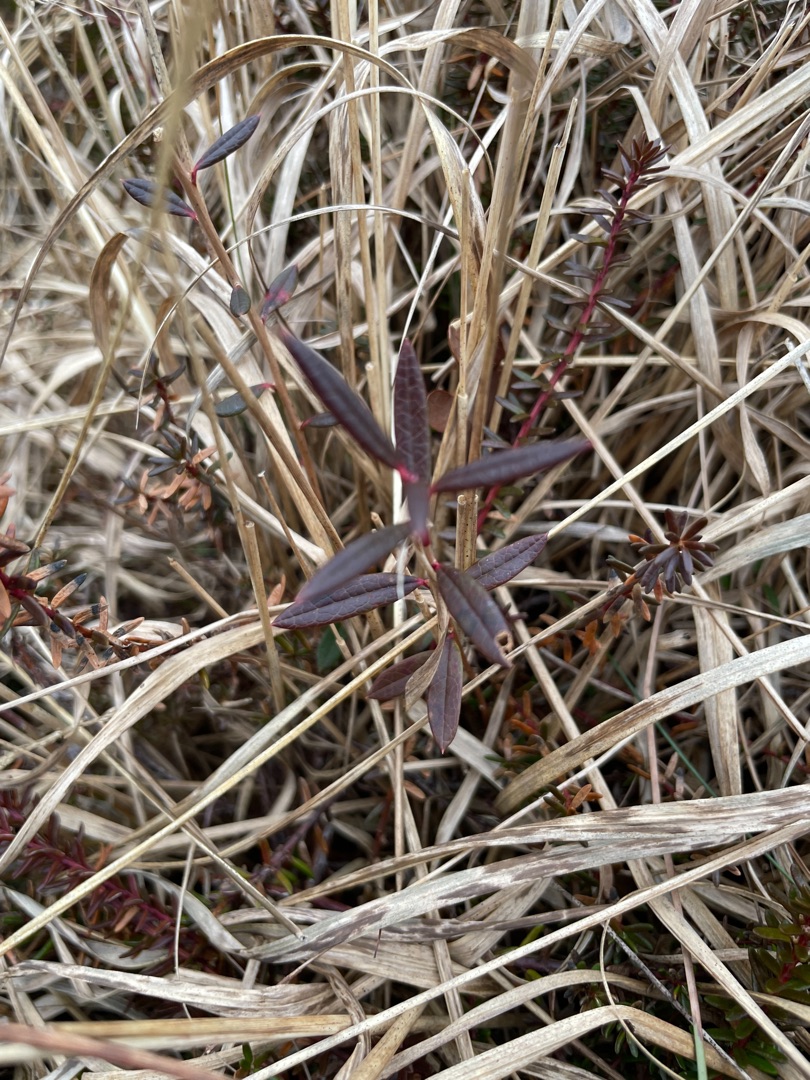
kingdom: Plantae
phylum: Tracheophyta
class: Magnoliopsida
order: Ericales
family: Ericaceae
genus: Andromeda
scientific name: Andromeda polifolia
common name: Rosmarinlyng
